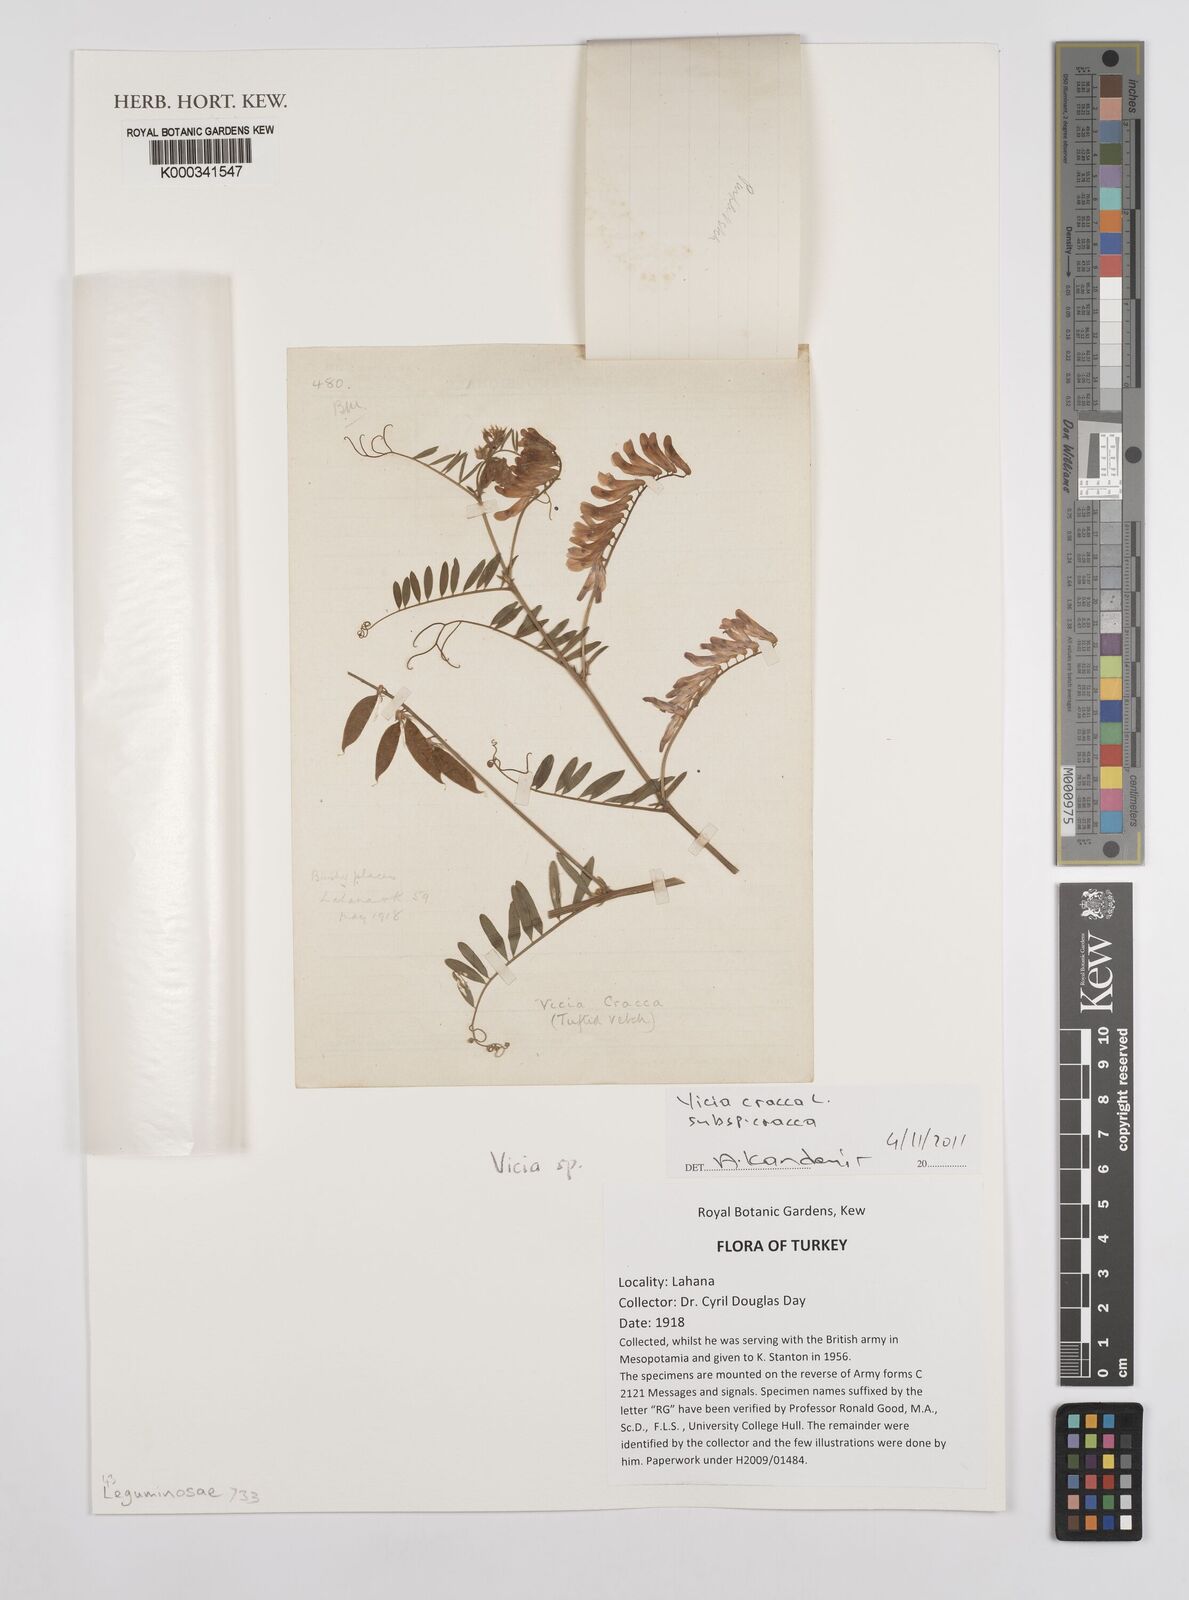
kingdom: Plantae
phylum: Tracheophyta
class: Magnoliopsida
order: Fabales
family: Fabaceae
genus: Vicia
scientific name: Vicia cracca
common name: Bird vetch
